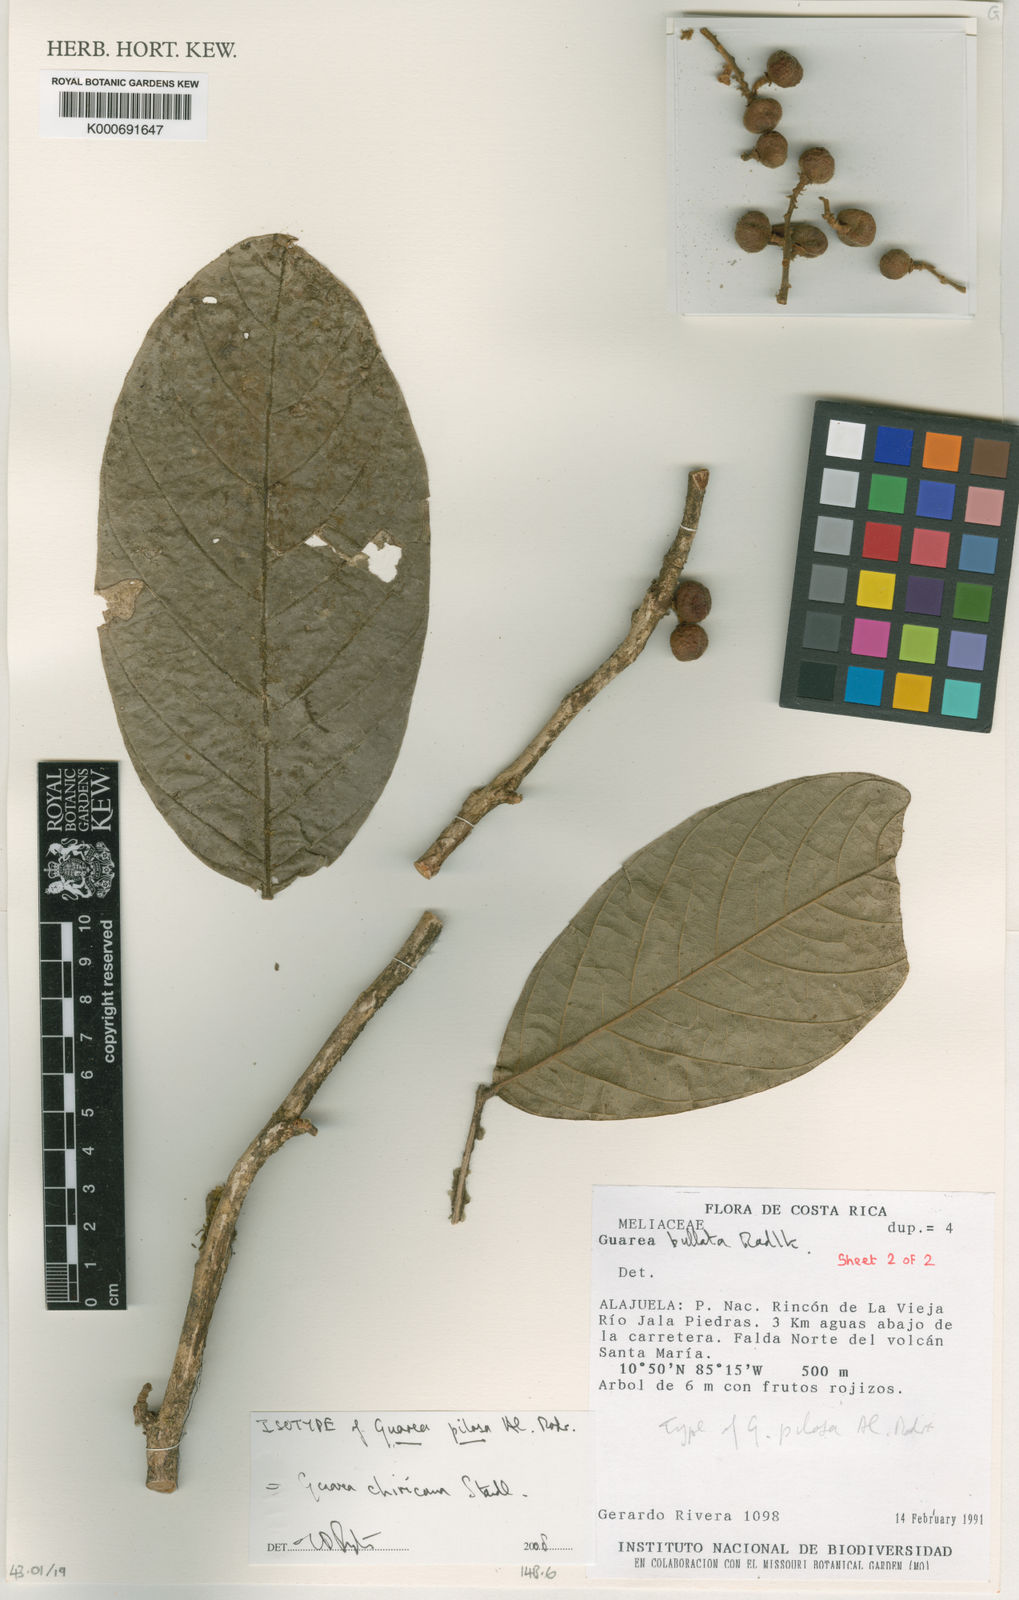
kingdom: Plantae
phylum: Tracheophyta
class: Magnoliopsida
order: Sapindales
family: Meliaceae
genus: Guarea
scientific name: Guarea glabra
